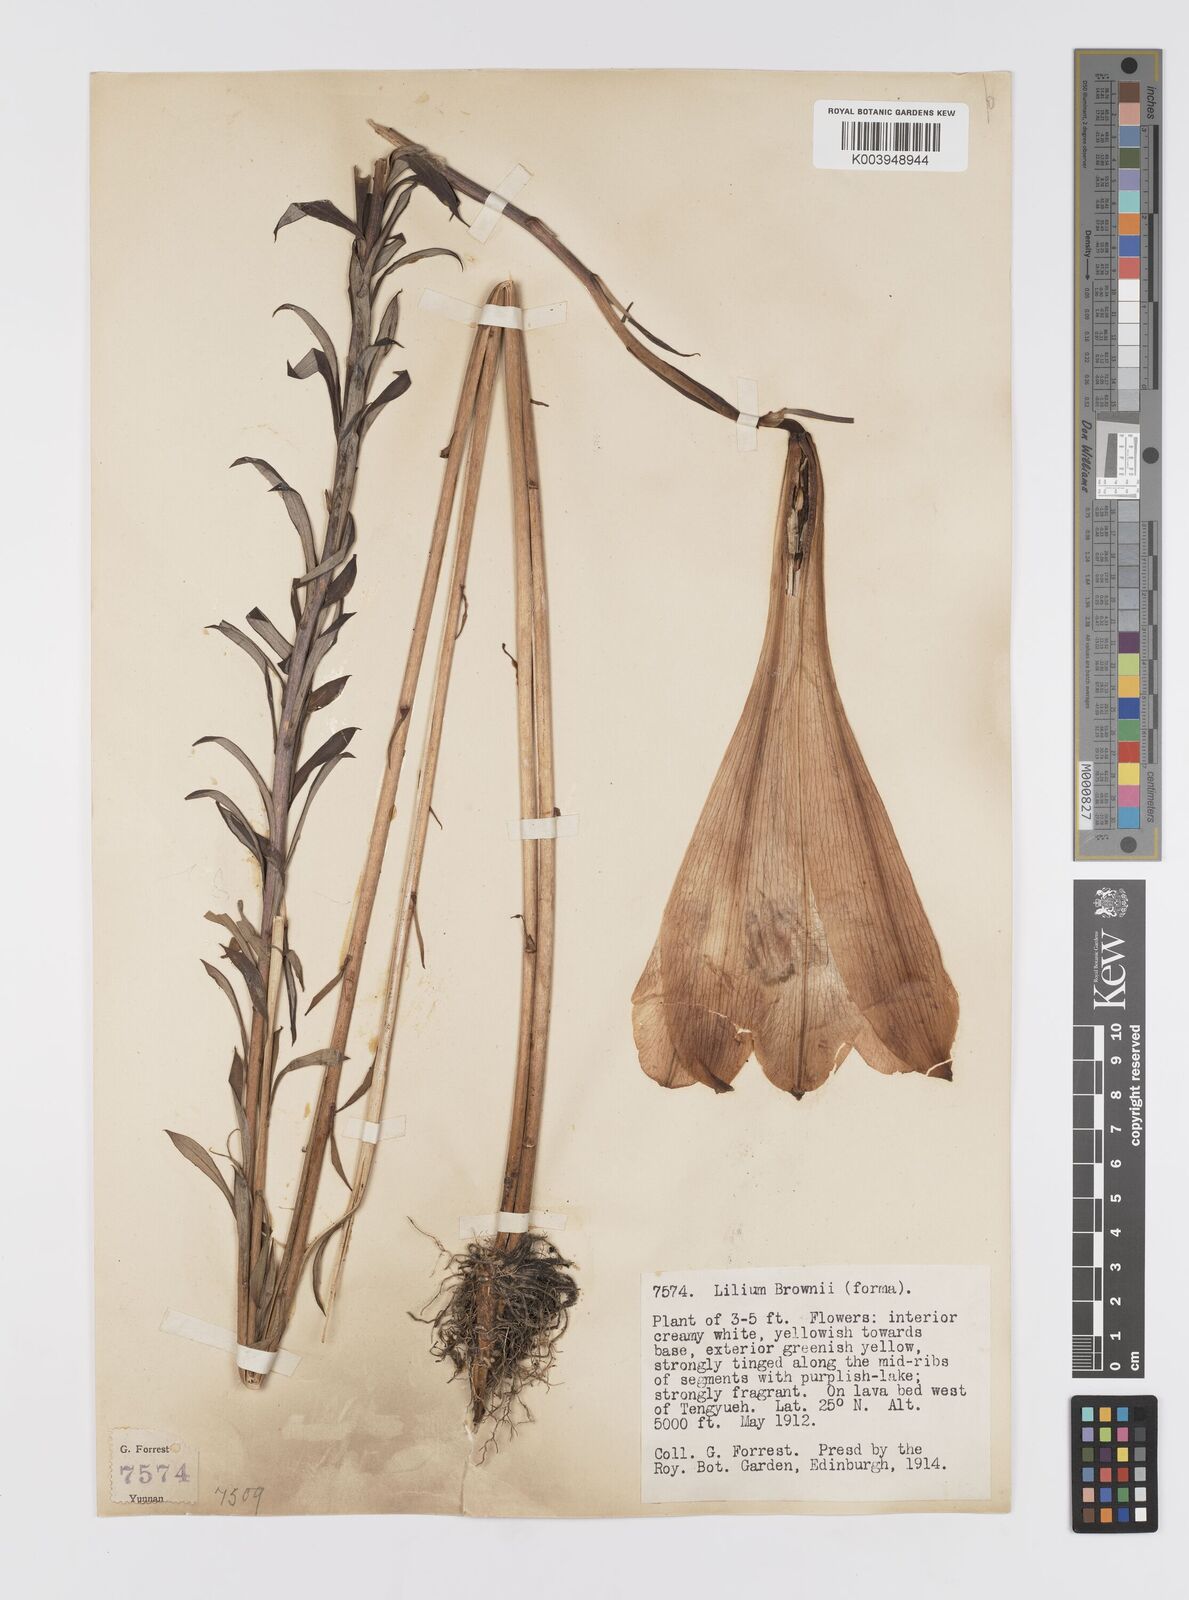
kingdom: Plantae
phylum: Tracheophyta
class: Liliopsida
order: Liliales
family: Liliaceae
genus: Lilium
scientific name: Lilium japonicum
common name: Japanese lily
